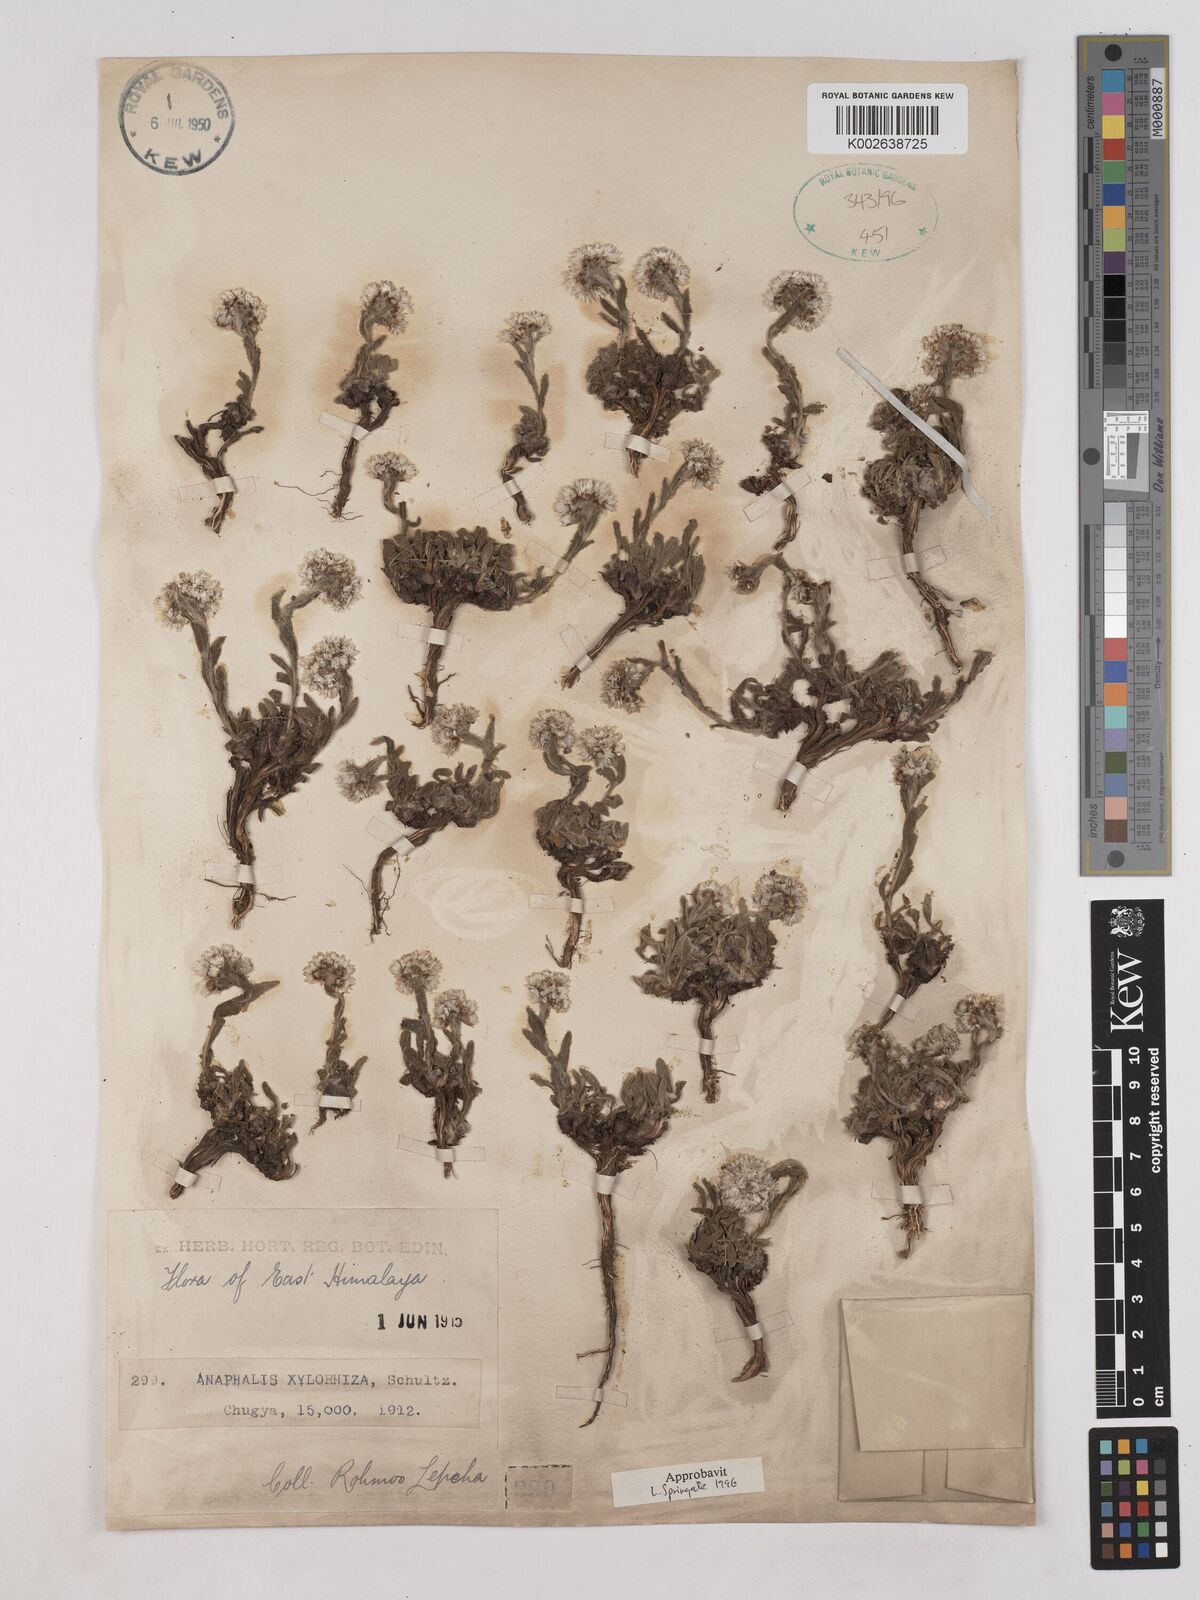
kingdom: Plantae
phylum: Tracheophyta
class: Magnoliopsida
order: Asterales
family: Asteraceae
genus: Anaphalis
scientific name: Anaphalis xylorhiza
